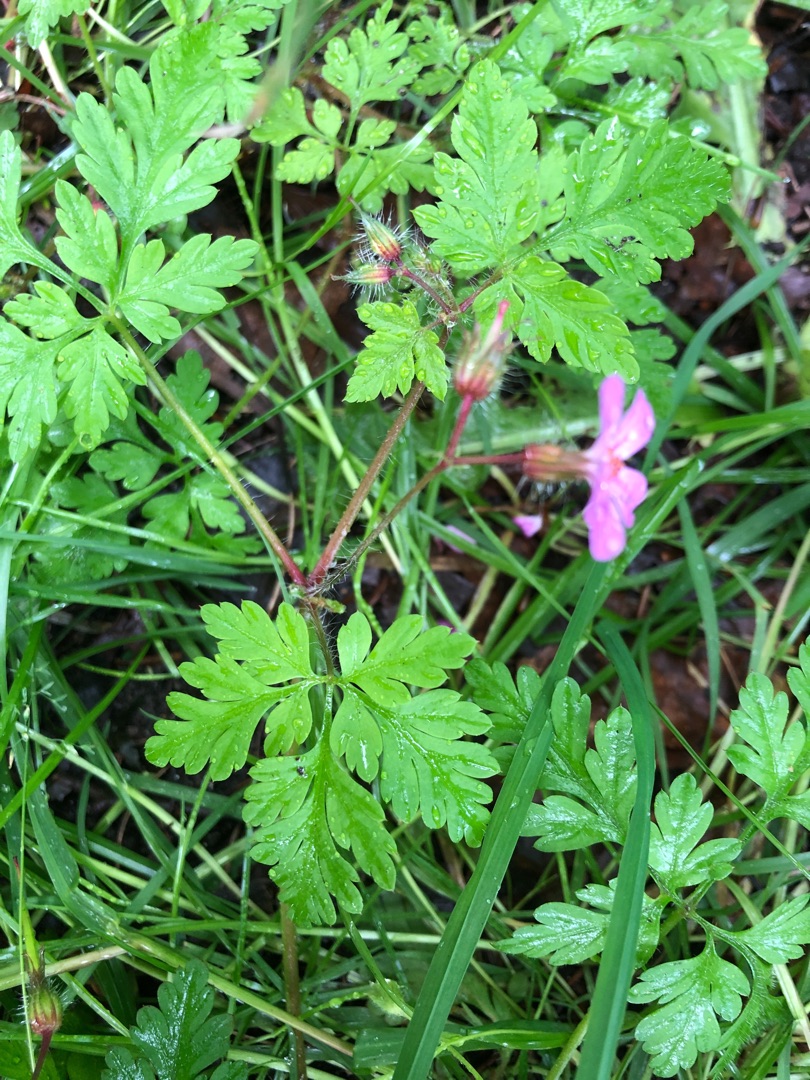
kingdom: Plantae
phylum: Tracheophyta
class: Magnoliopsida
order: Geraniales
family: Geraniaceae
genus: Geranium
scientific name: Geranium robertianum
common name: Stinkende storkenæb
